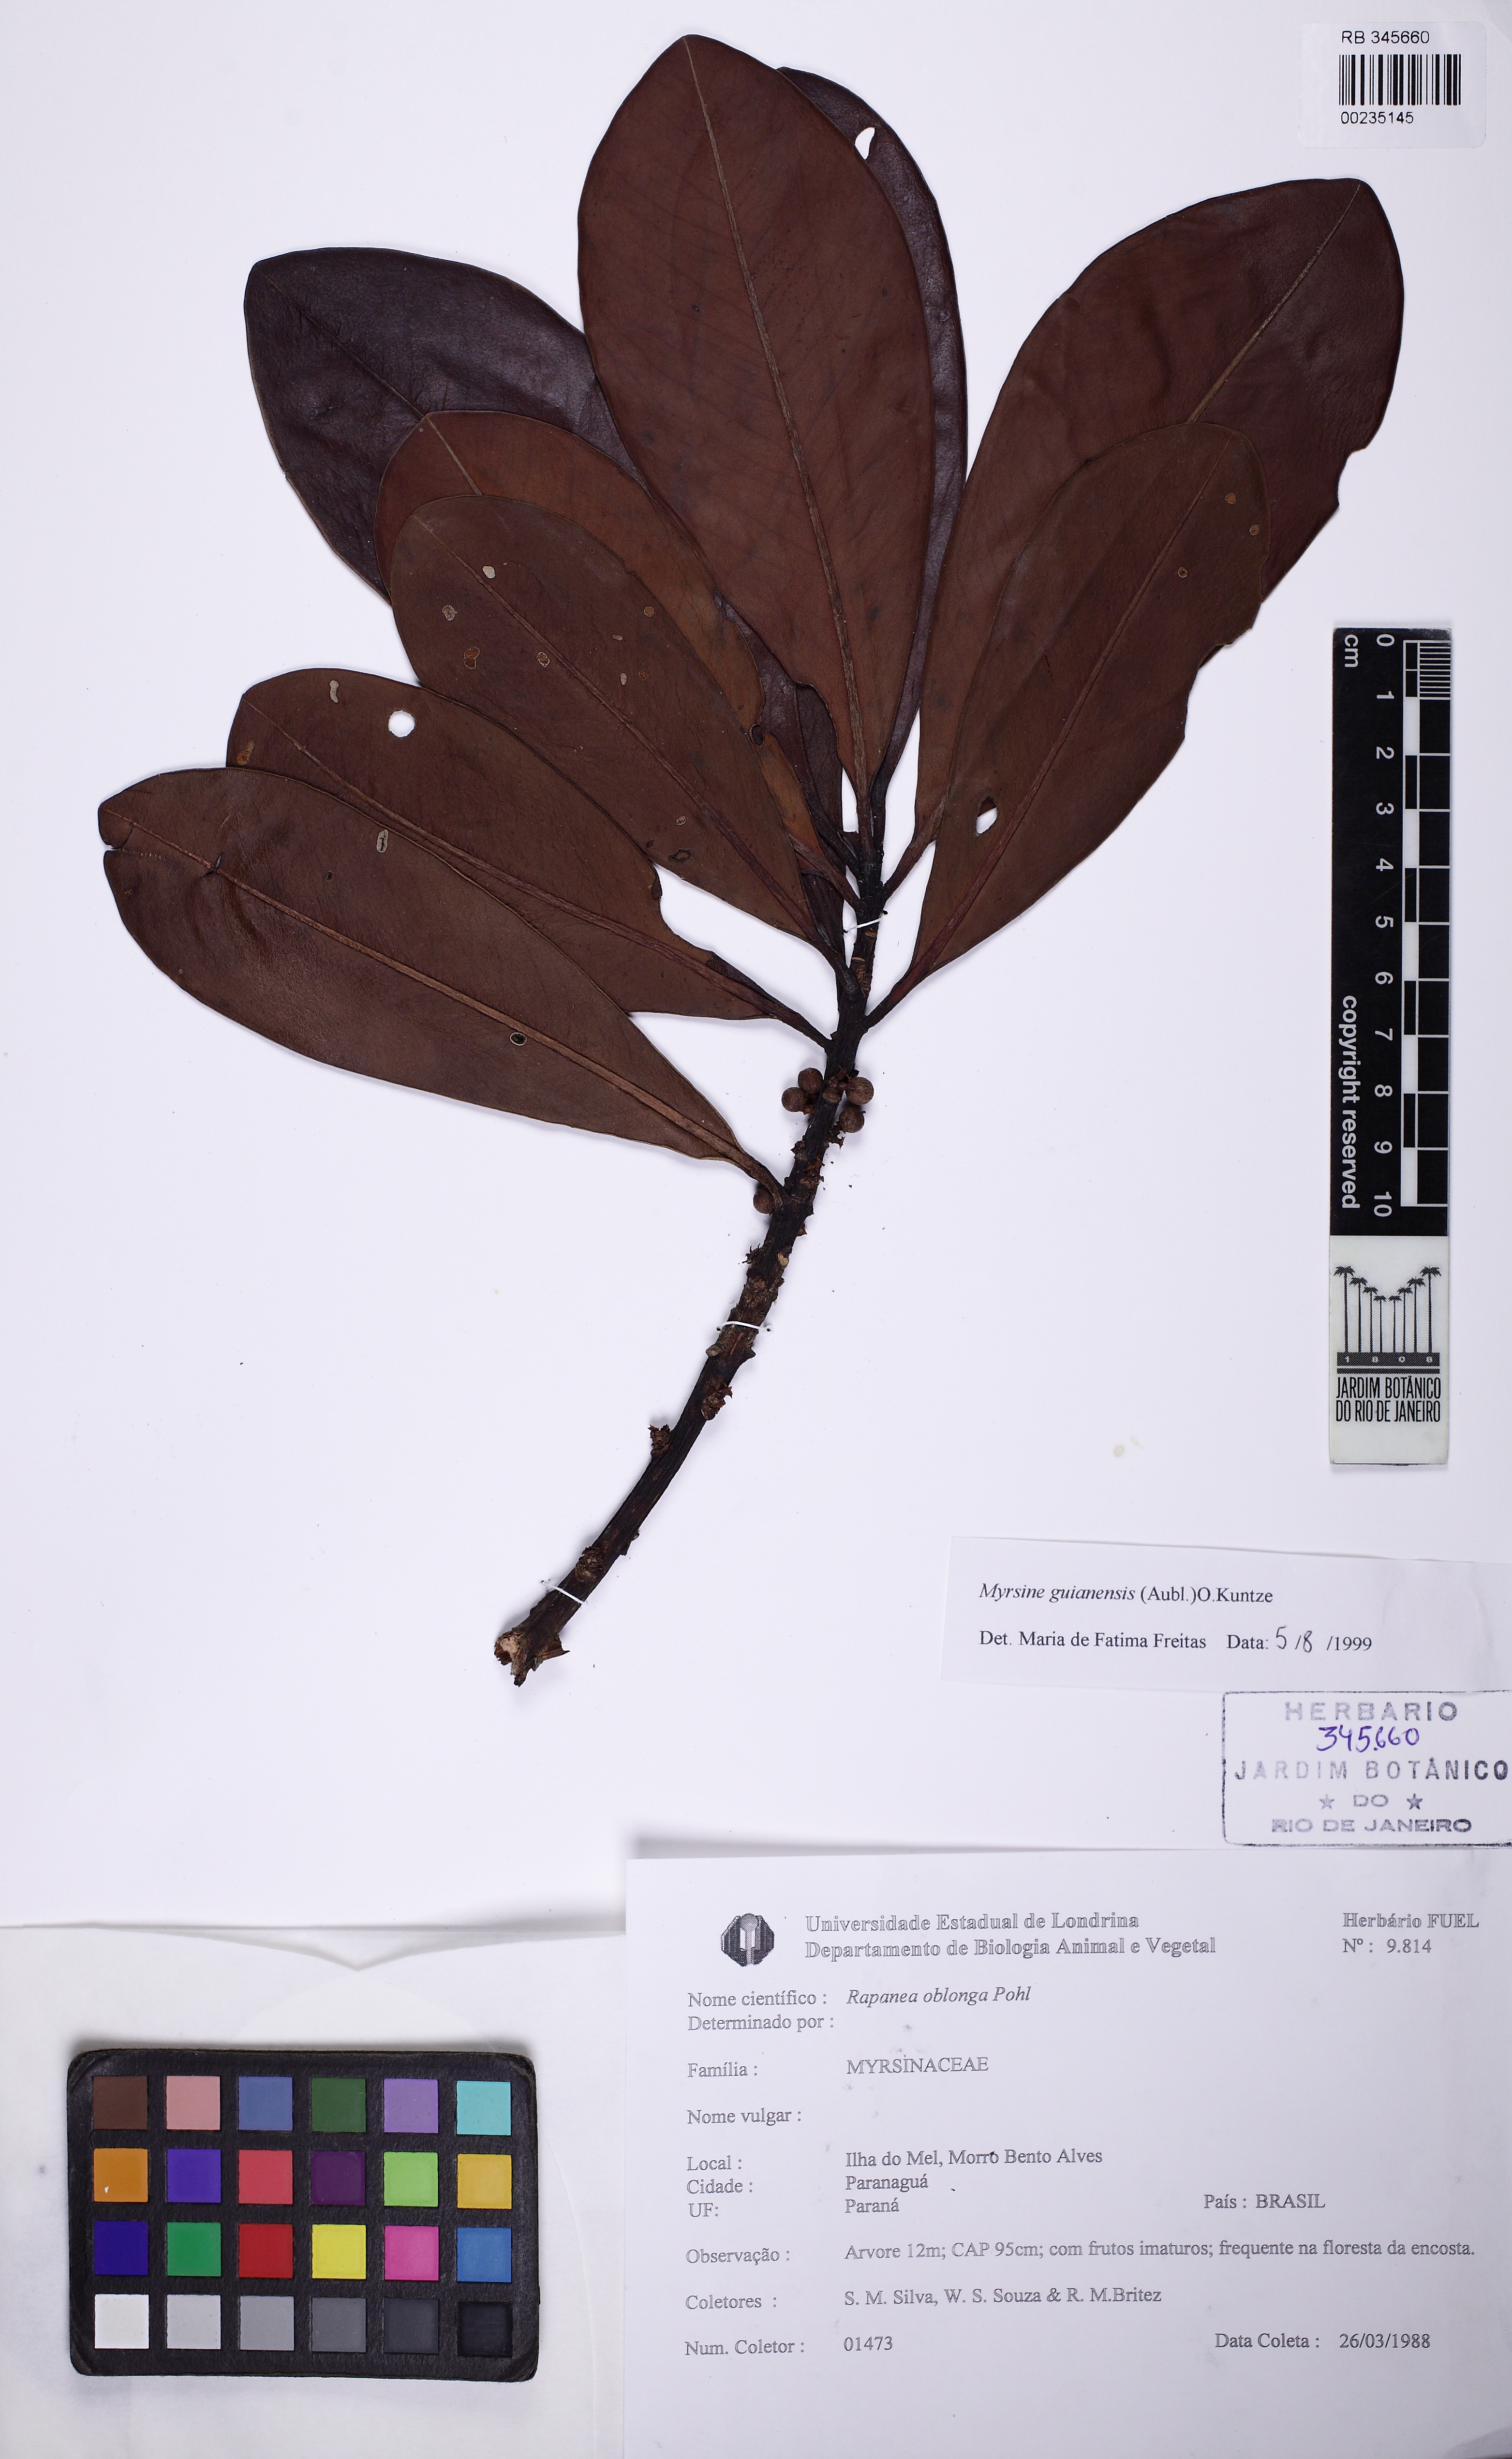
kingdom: Plantae
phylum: Tracheophyta
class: Magnoliopsida
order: Ericales
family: Primulaceae
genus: Myrsine
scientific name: Myrsine guianensis
